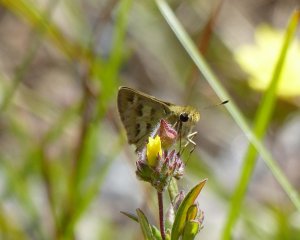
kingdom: Animalia
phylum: Arthropoda
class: Insecta
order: Lepidoptera
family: Hesperiidae
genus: Polites
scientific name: Polites vibex
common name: Whirlabout
